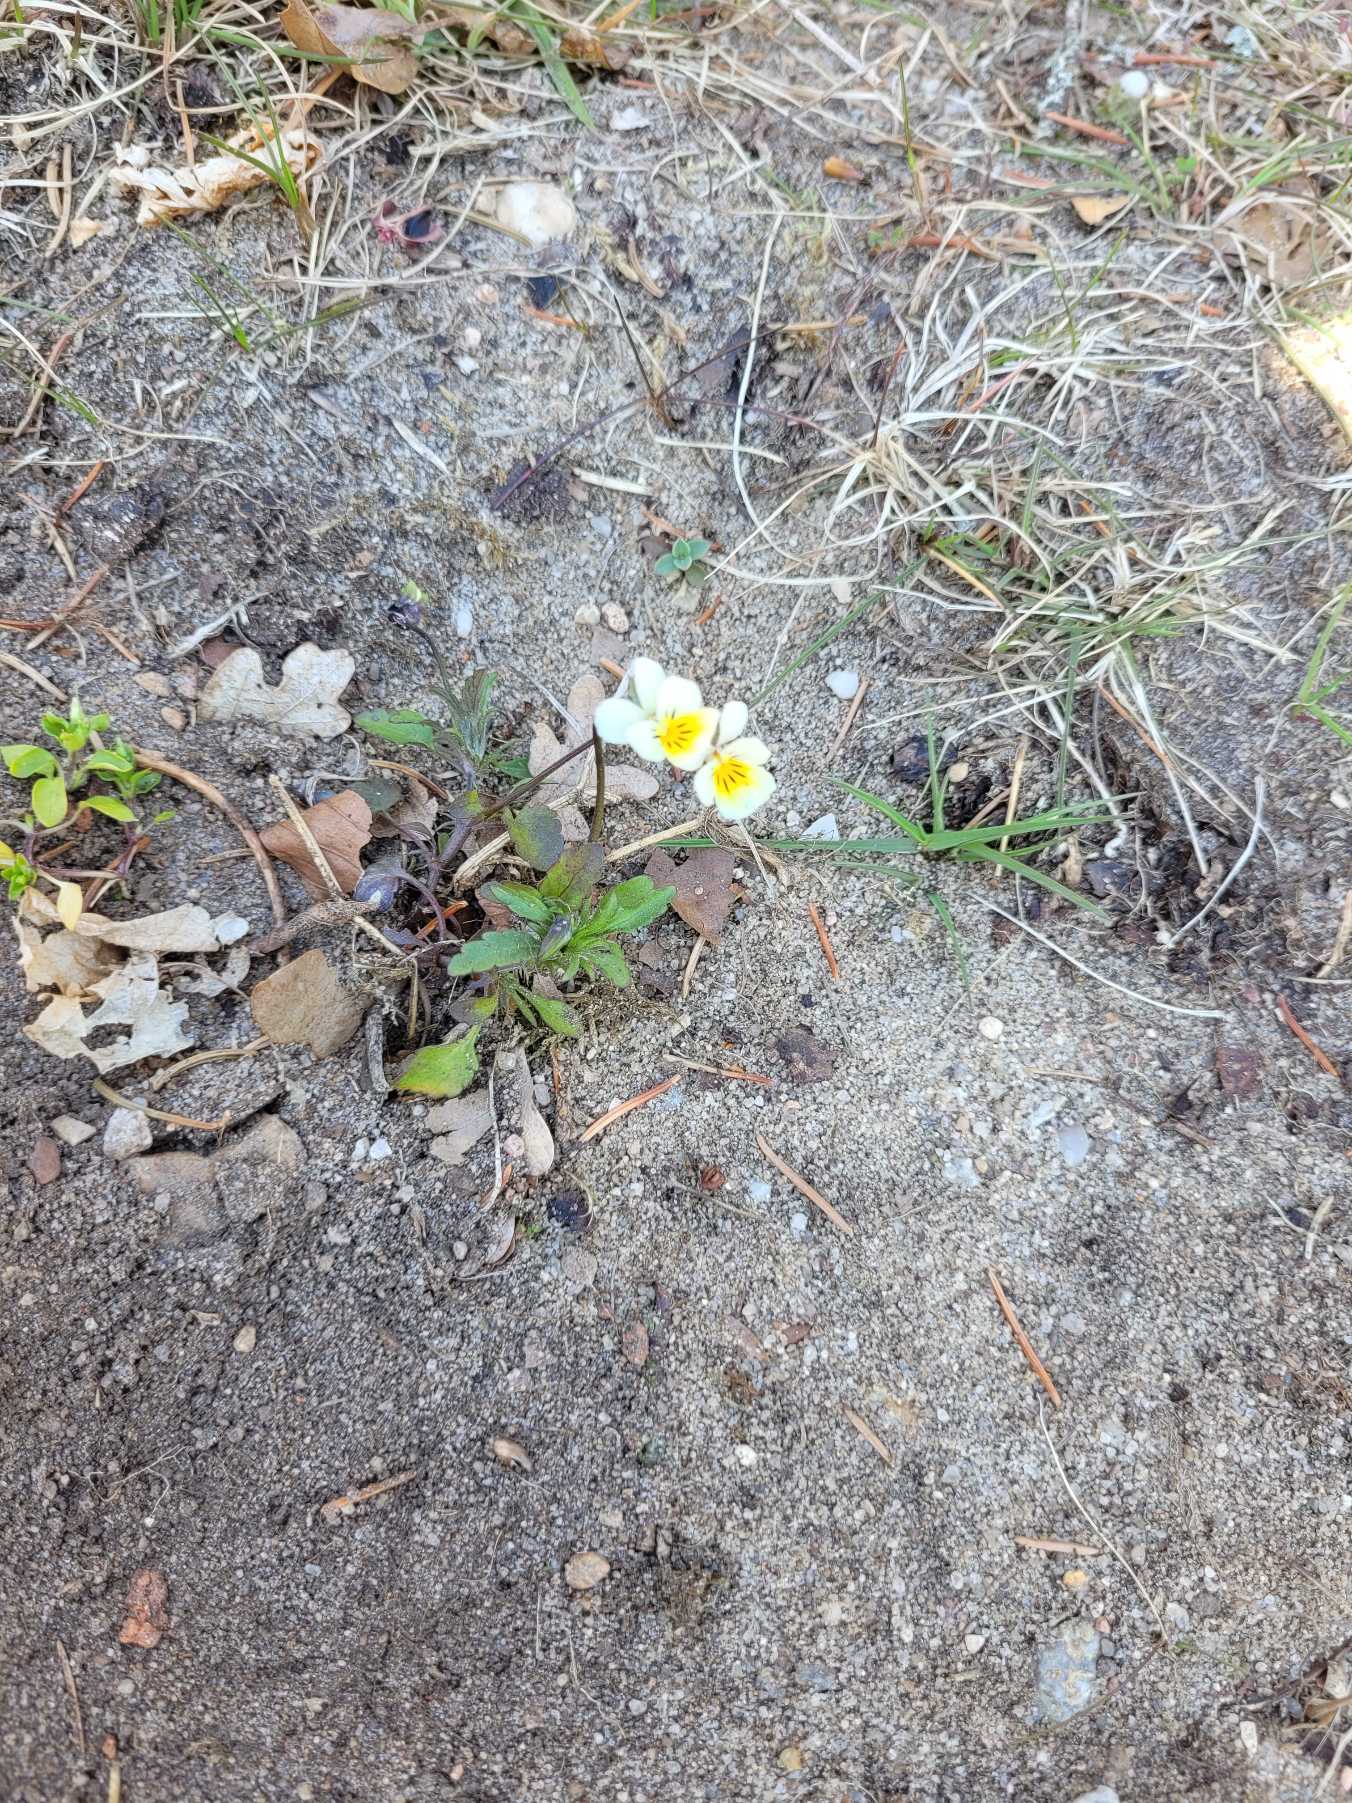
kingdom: Plantae
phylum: Tracheophyta
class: Magnoliopsida
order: Malpighiales
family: Violaceae
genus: Viola
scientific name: Viola arvensis
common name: Ager-stedmoderblomst
